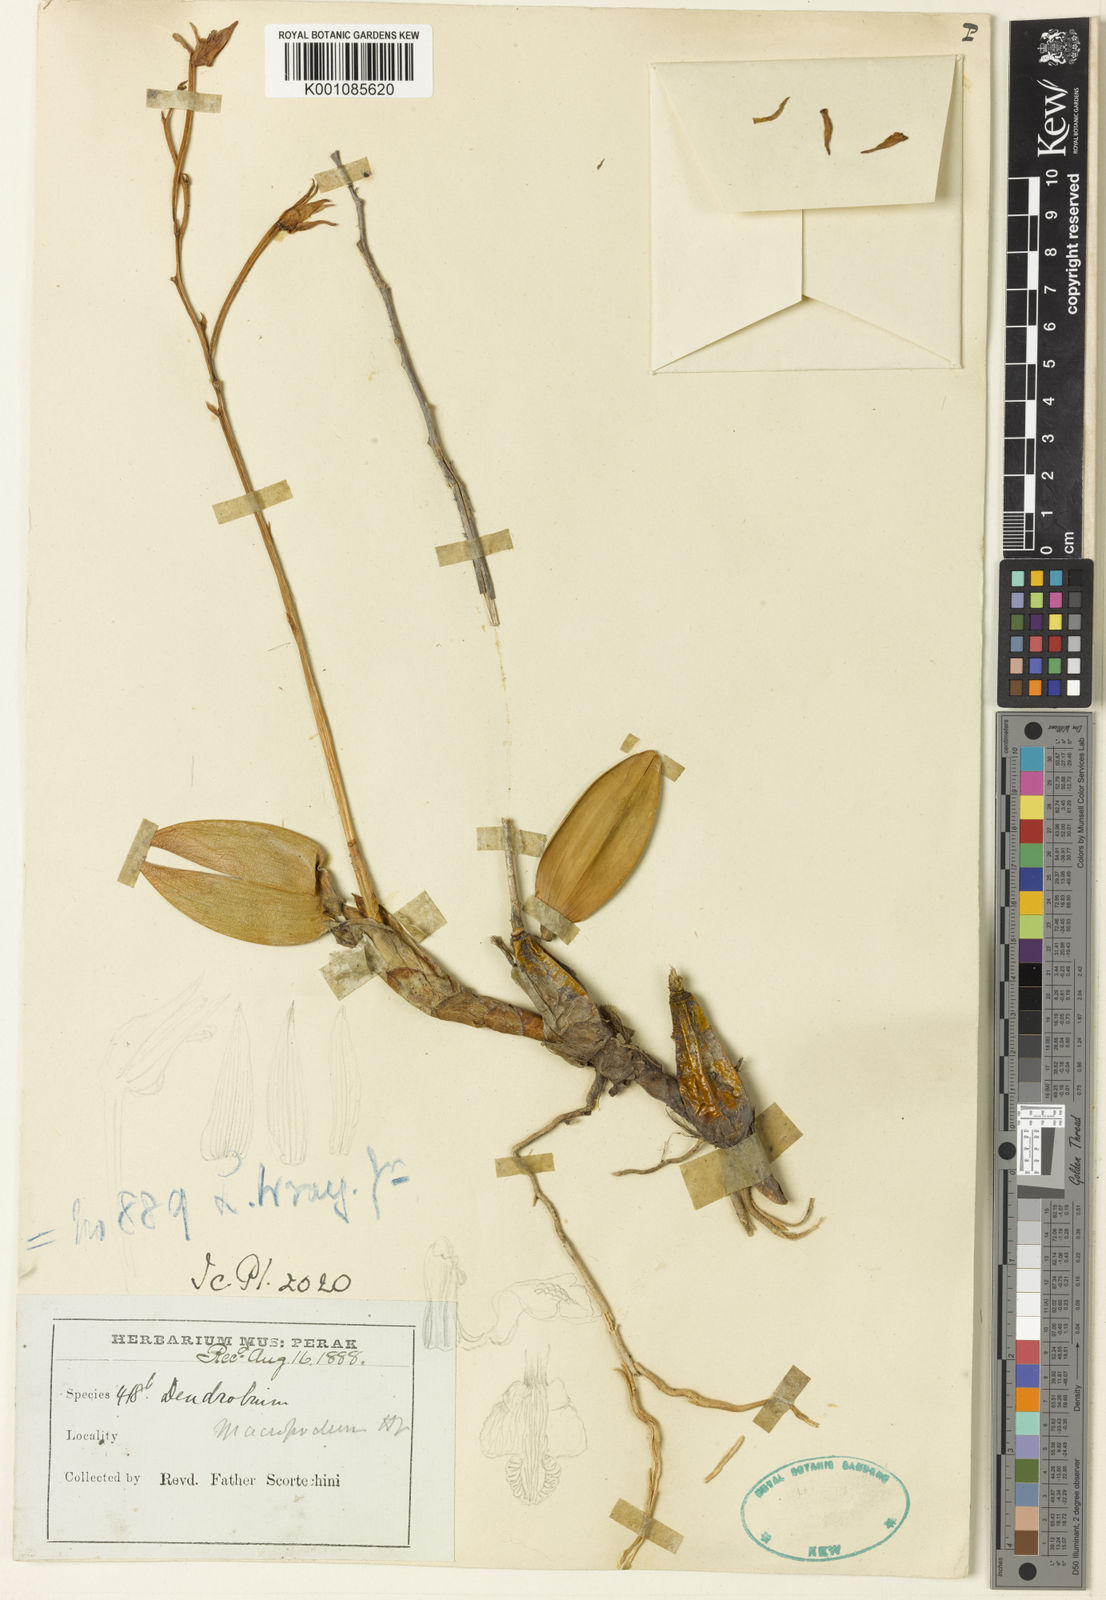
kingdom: Plantae
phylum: Tracheophyta
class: Liliopsida
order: Asparagales
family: Orchidaceae
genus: Dendrobium
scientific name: Dendrobium macropodum
